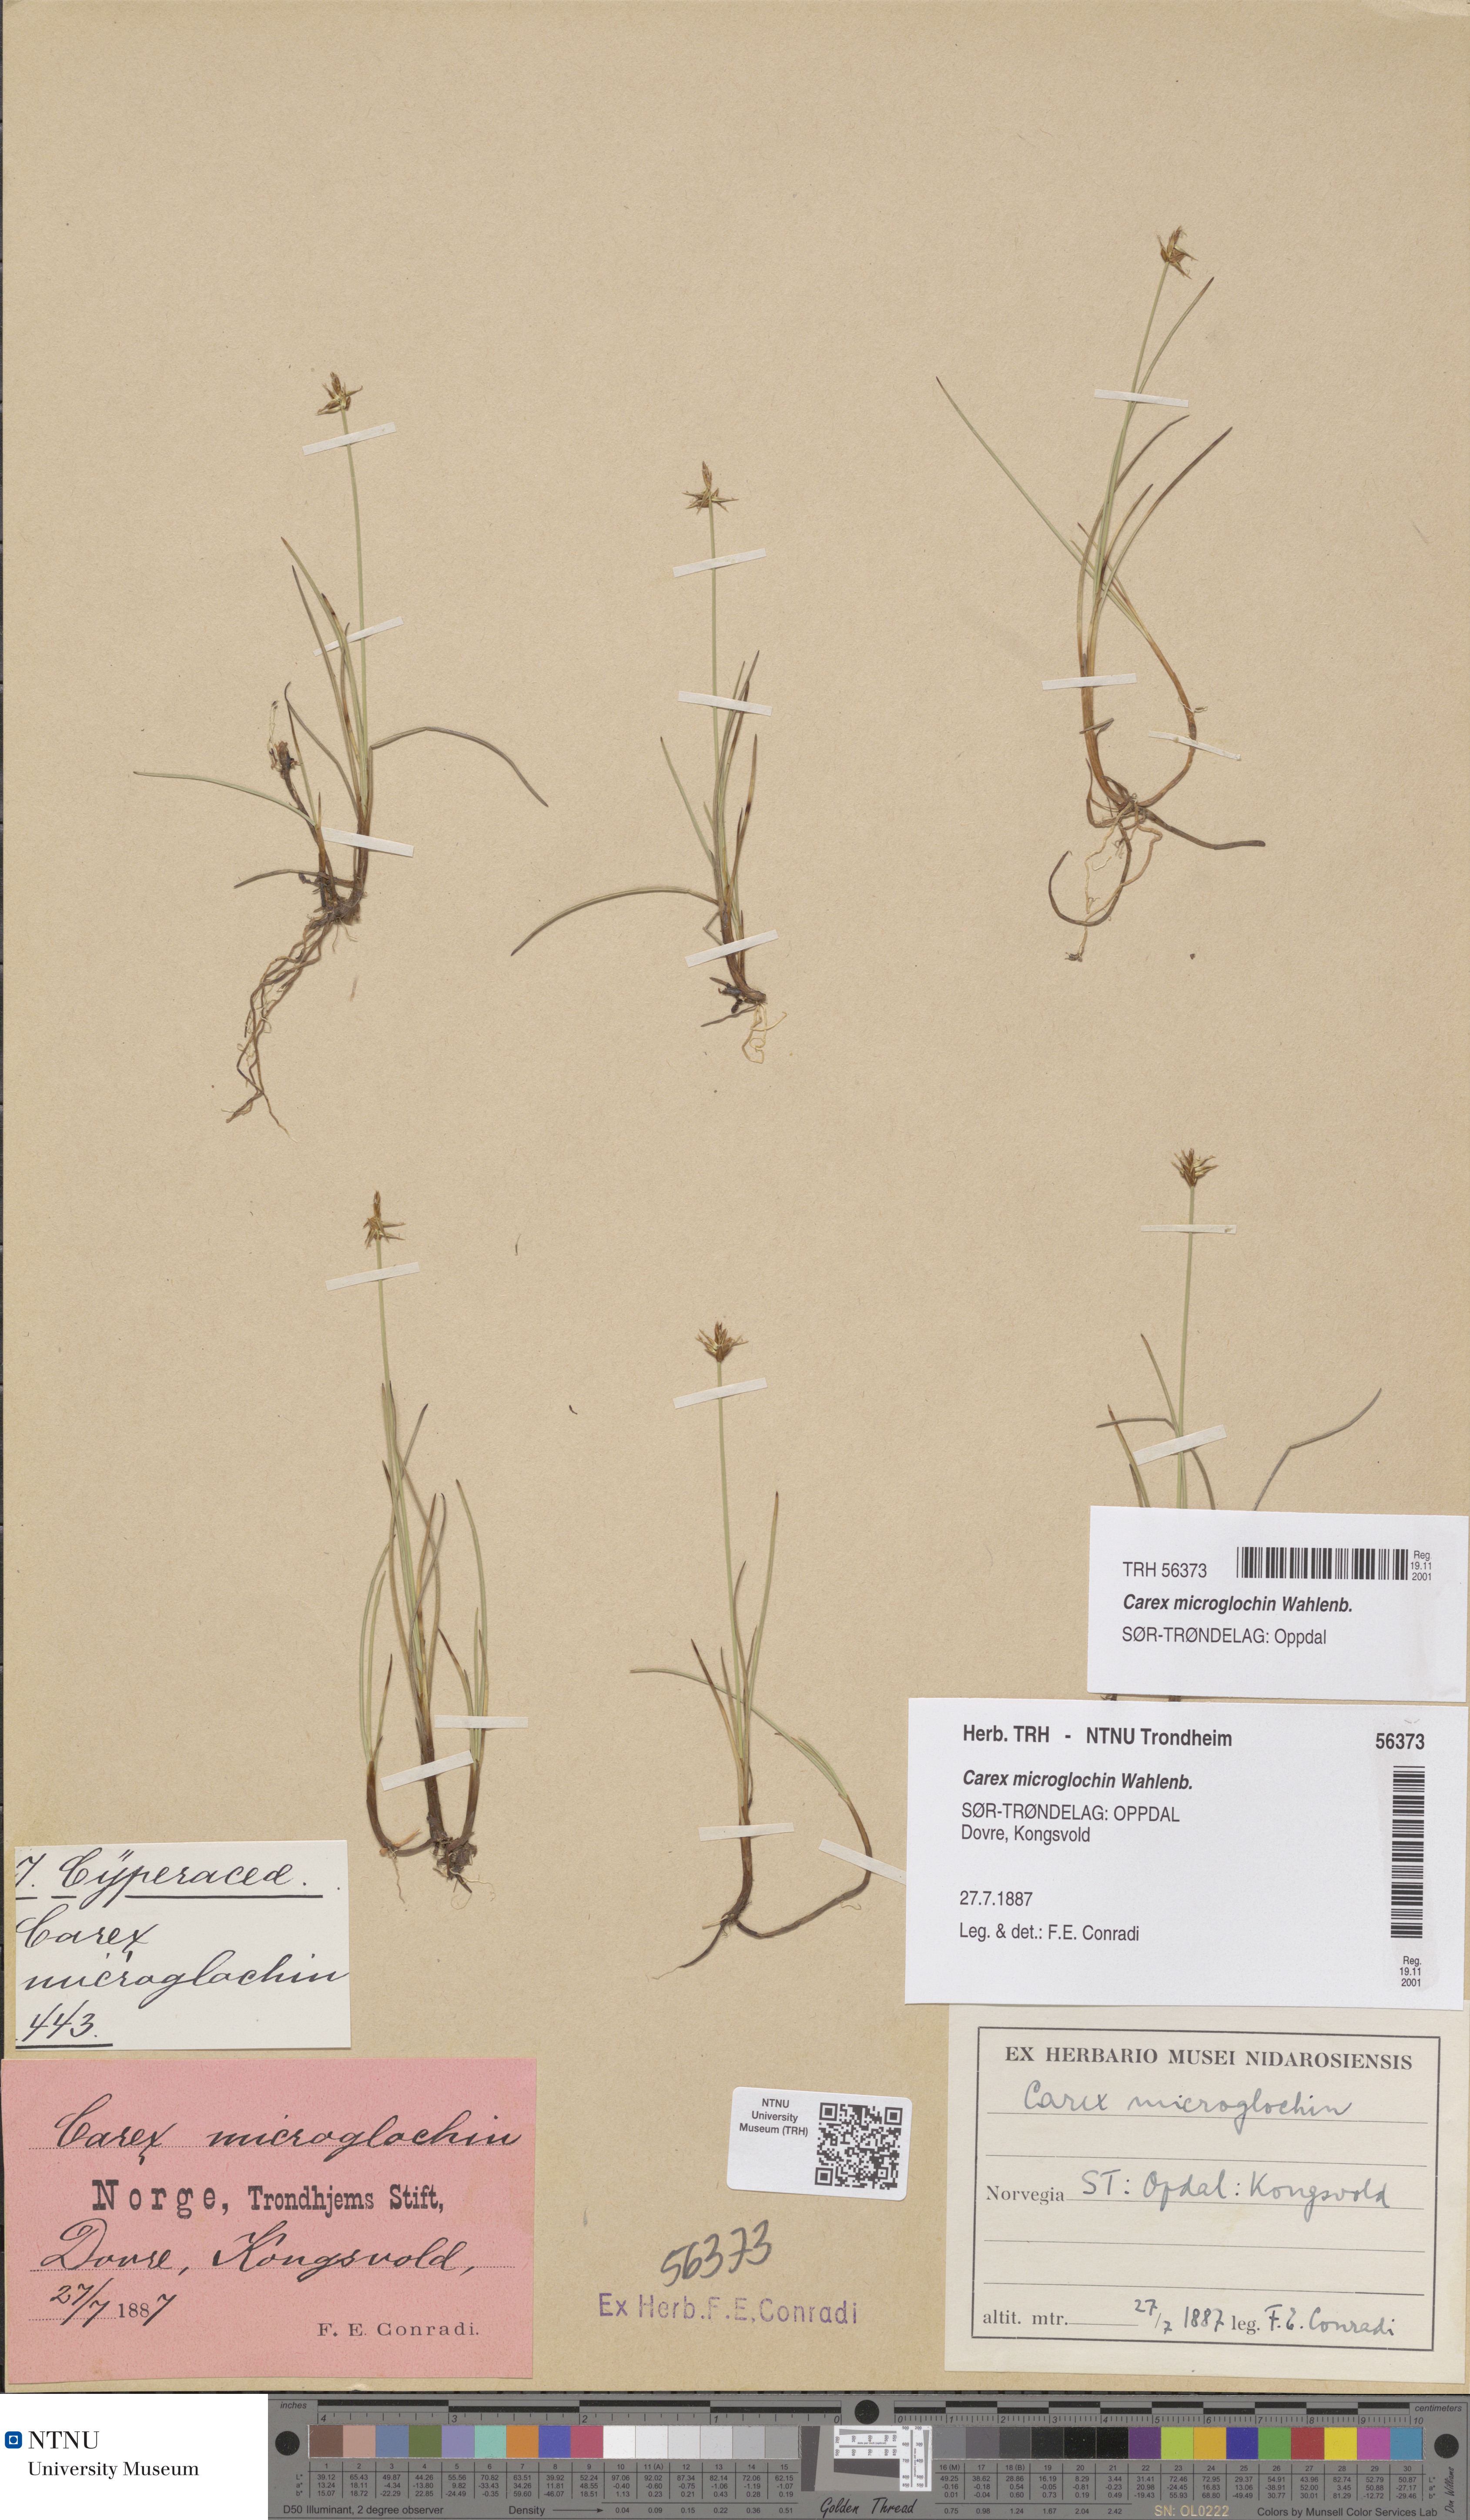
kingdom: Plantae
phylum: Tracheophyta
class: Liliopsida
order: Poales
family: Cyperaceae
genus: Carex
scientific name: Carex microglochin
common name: Bristle sedge
